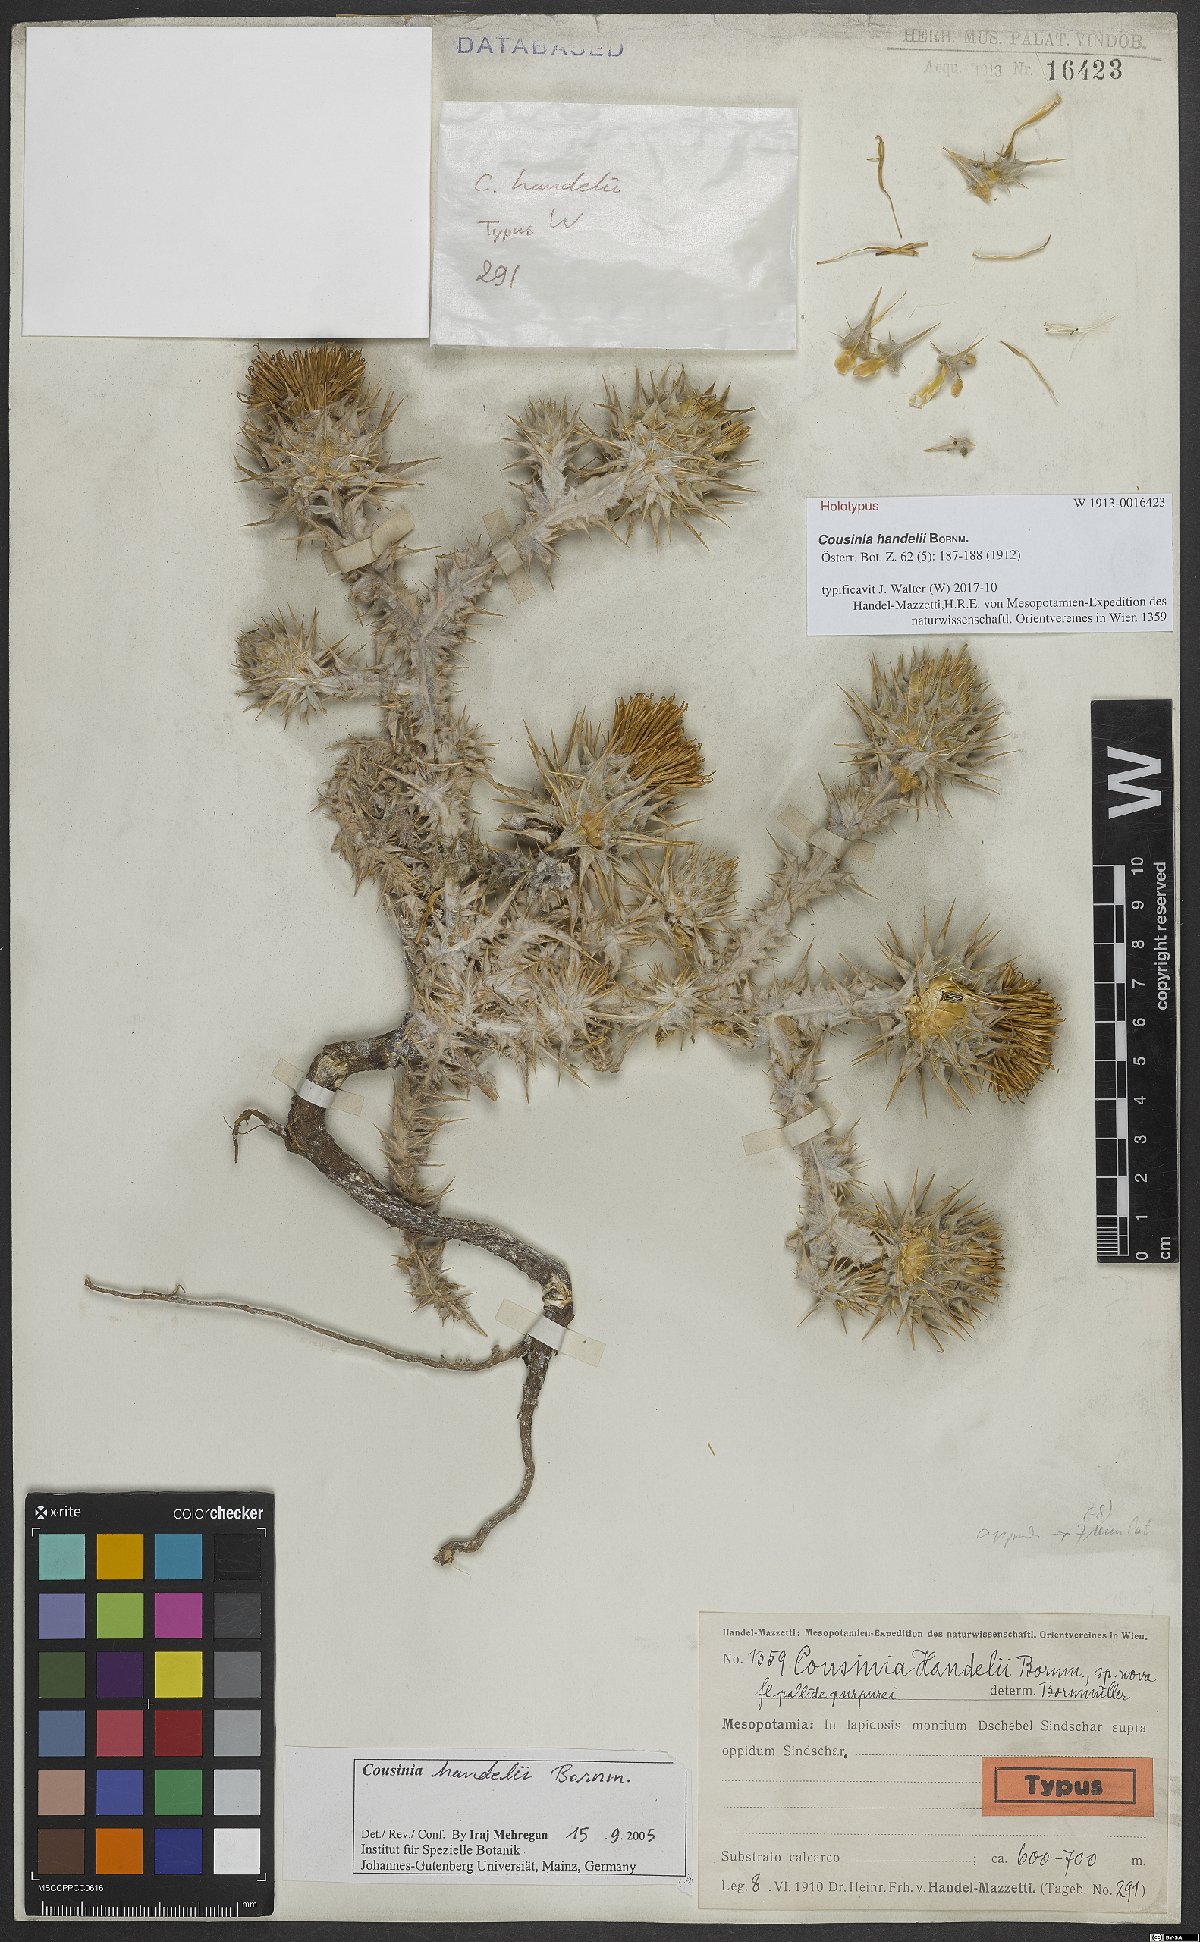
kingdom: Plantae
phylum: Tracheophyta
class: Magnoliopsida
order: Asterales
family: Asteraceae
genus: Cousinia
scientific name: Cousinia aintabensis
